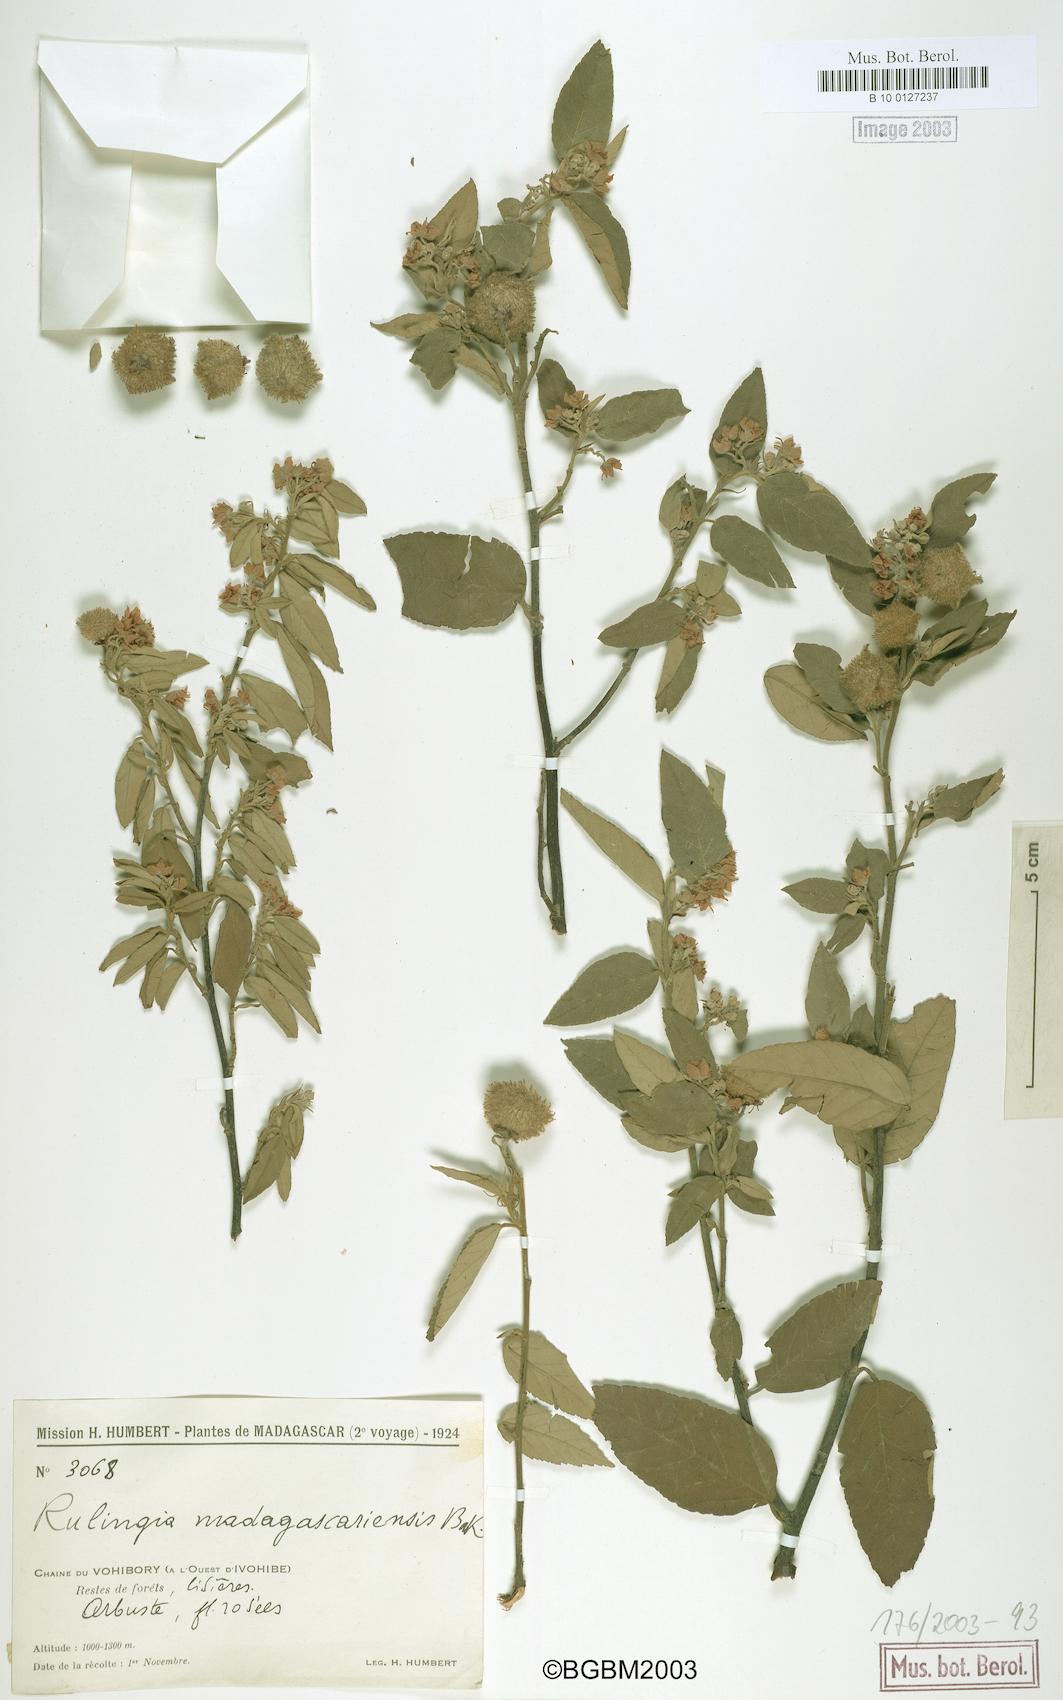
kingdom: Plantae
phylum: Tracheophyta
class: Magnoliopsida
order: Malvales
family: Malvaceae
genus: Commersonia
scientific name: Commersonia madagascariensis
